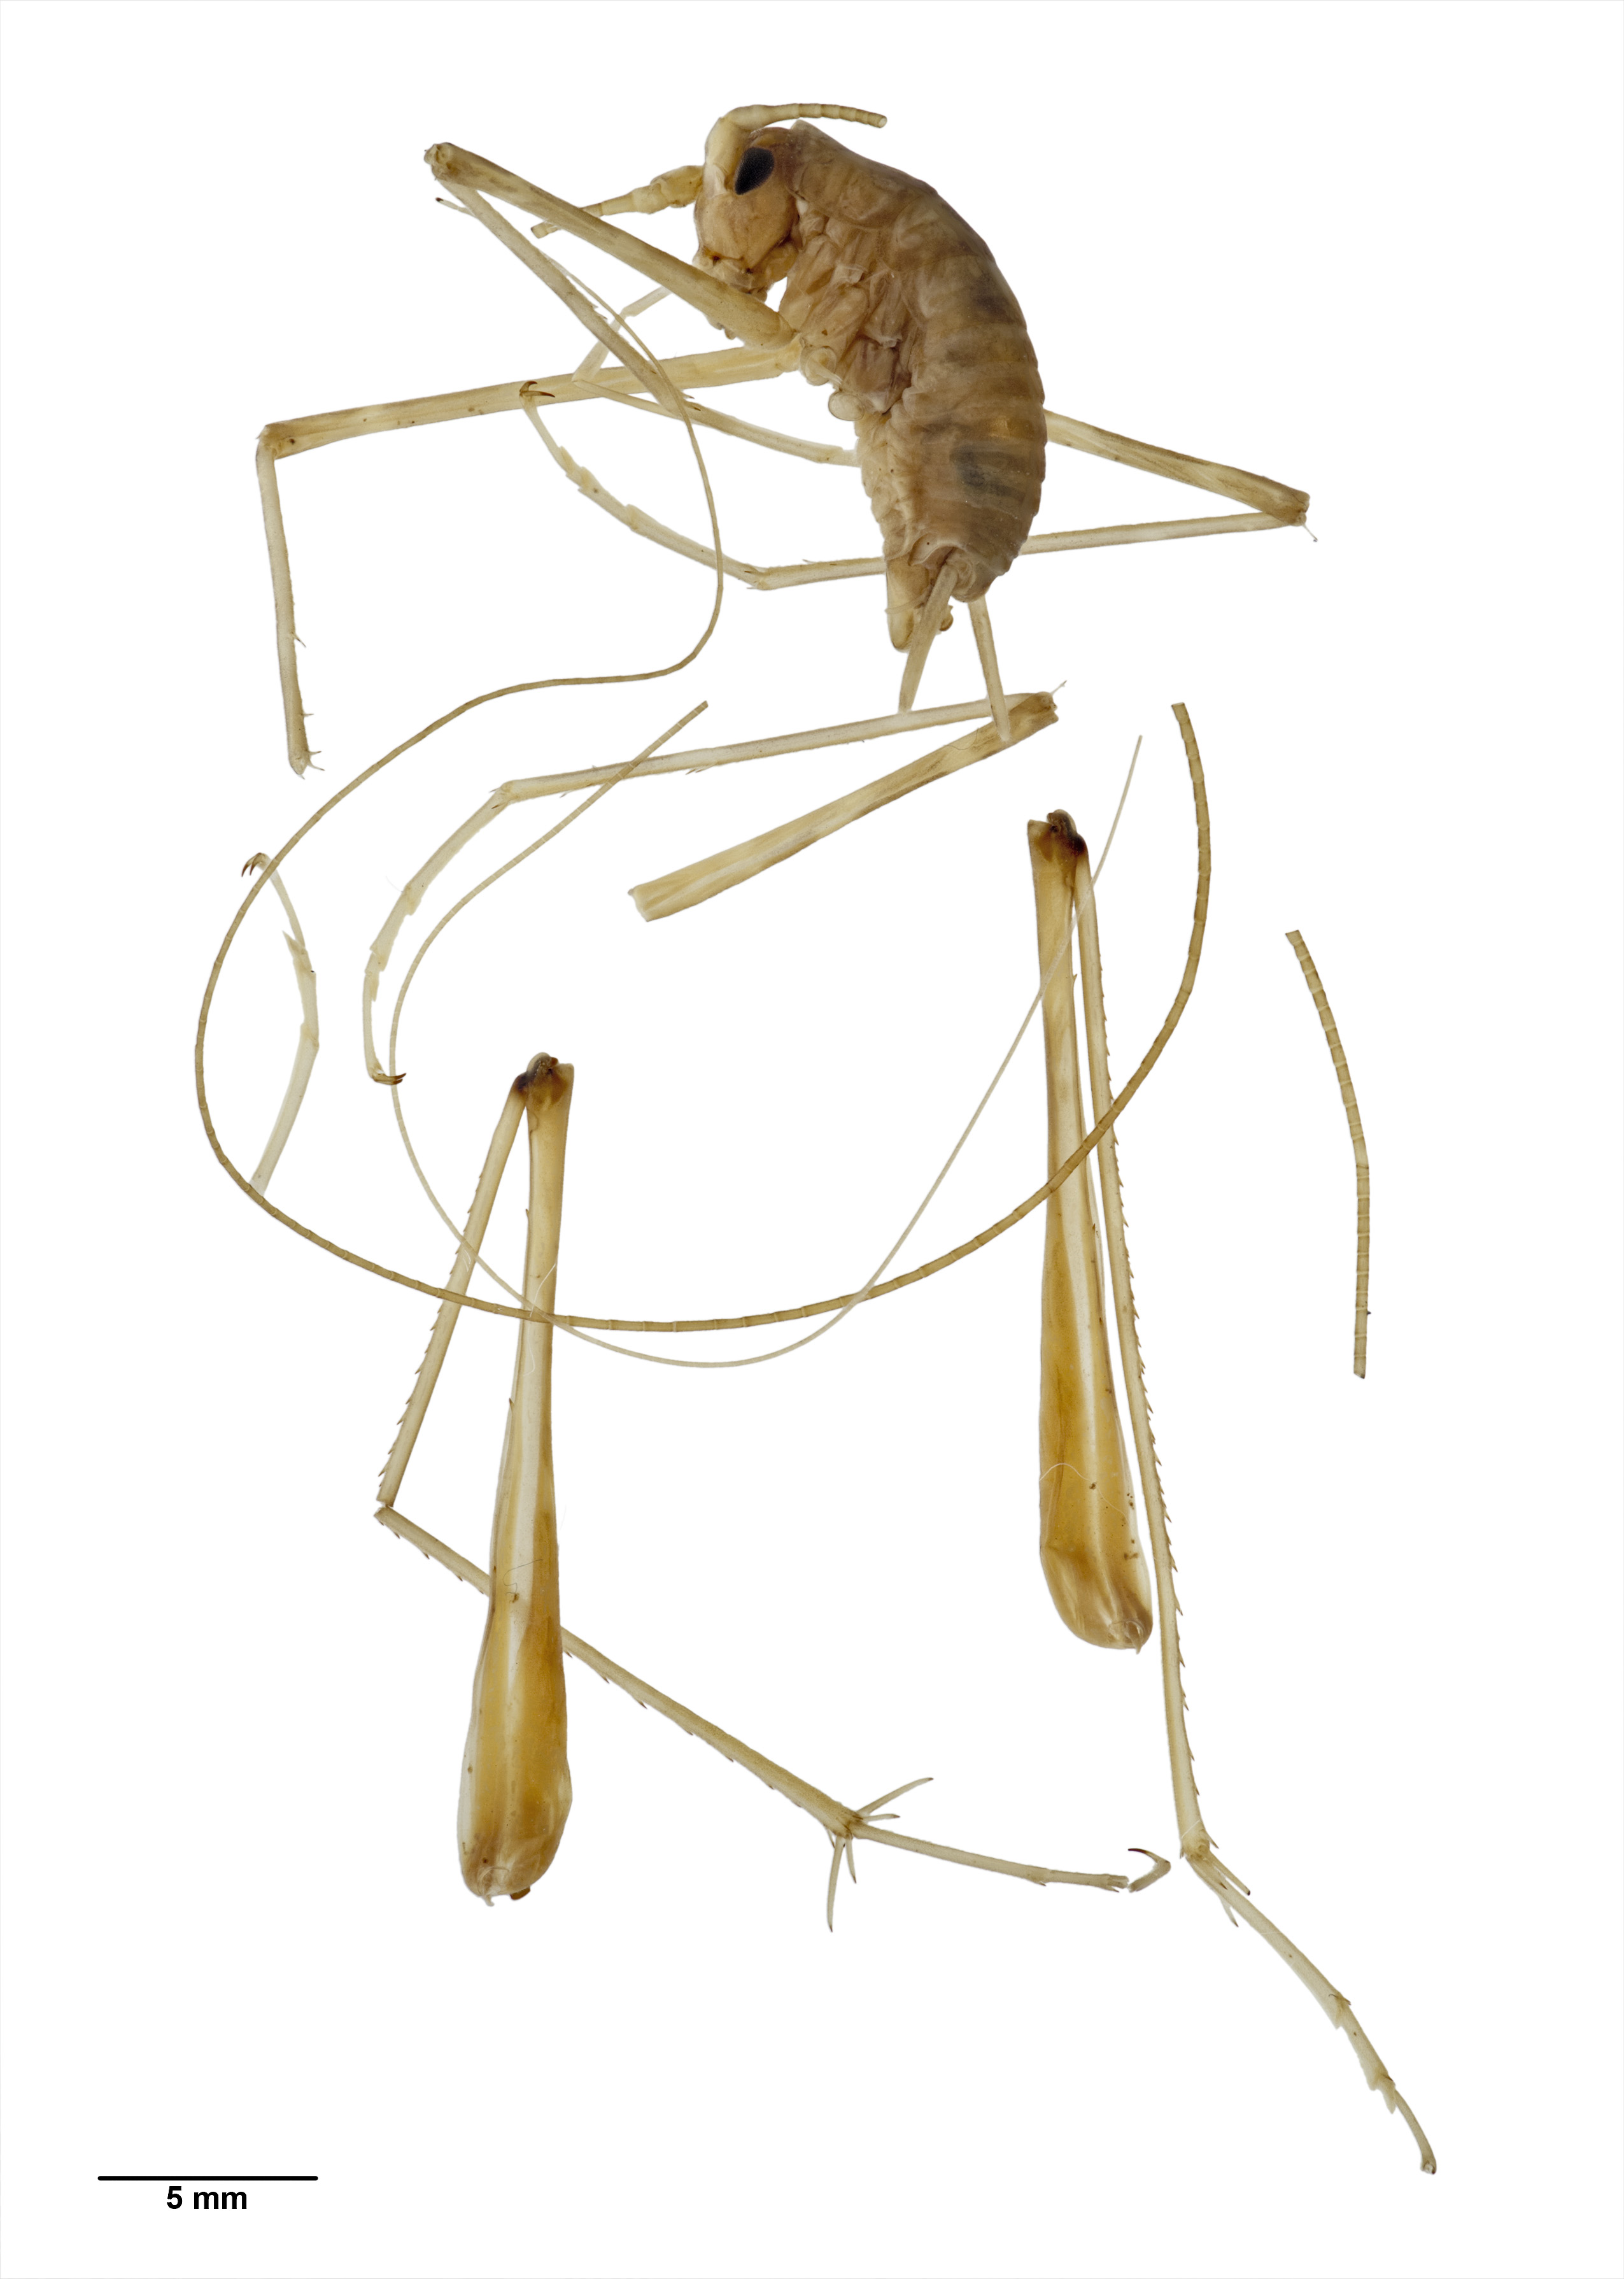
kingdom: Animalia
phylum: Arthropoda
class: Insecta
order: Orthoptera
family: Rhaphidophoridae
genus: Pallidoplectron
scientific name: Pallidoplectron turneri
